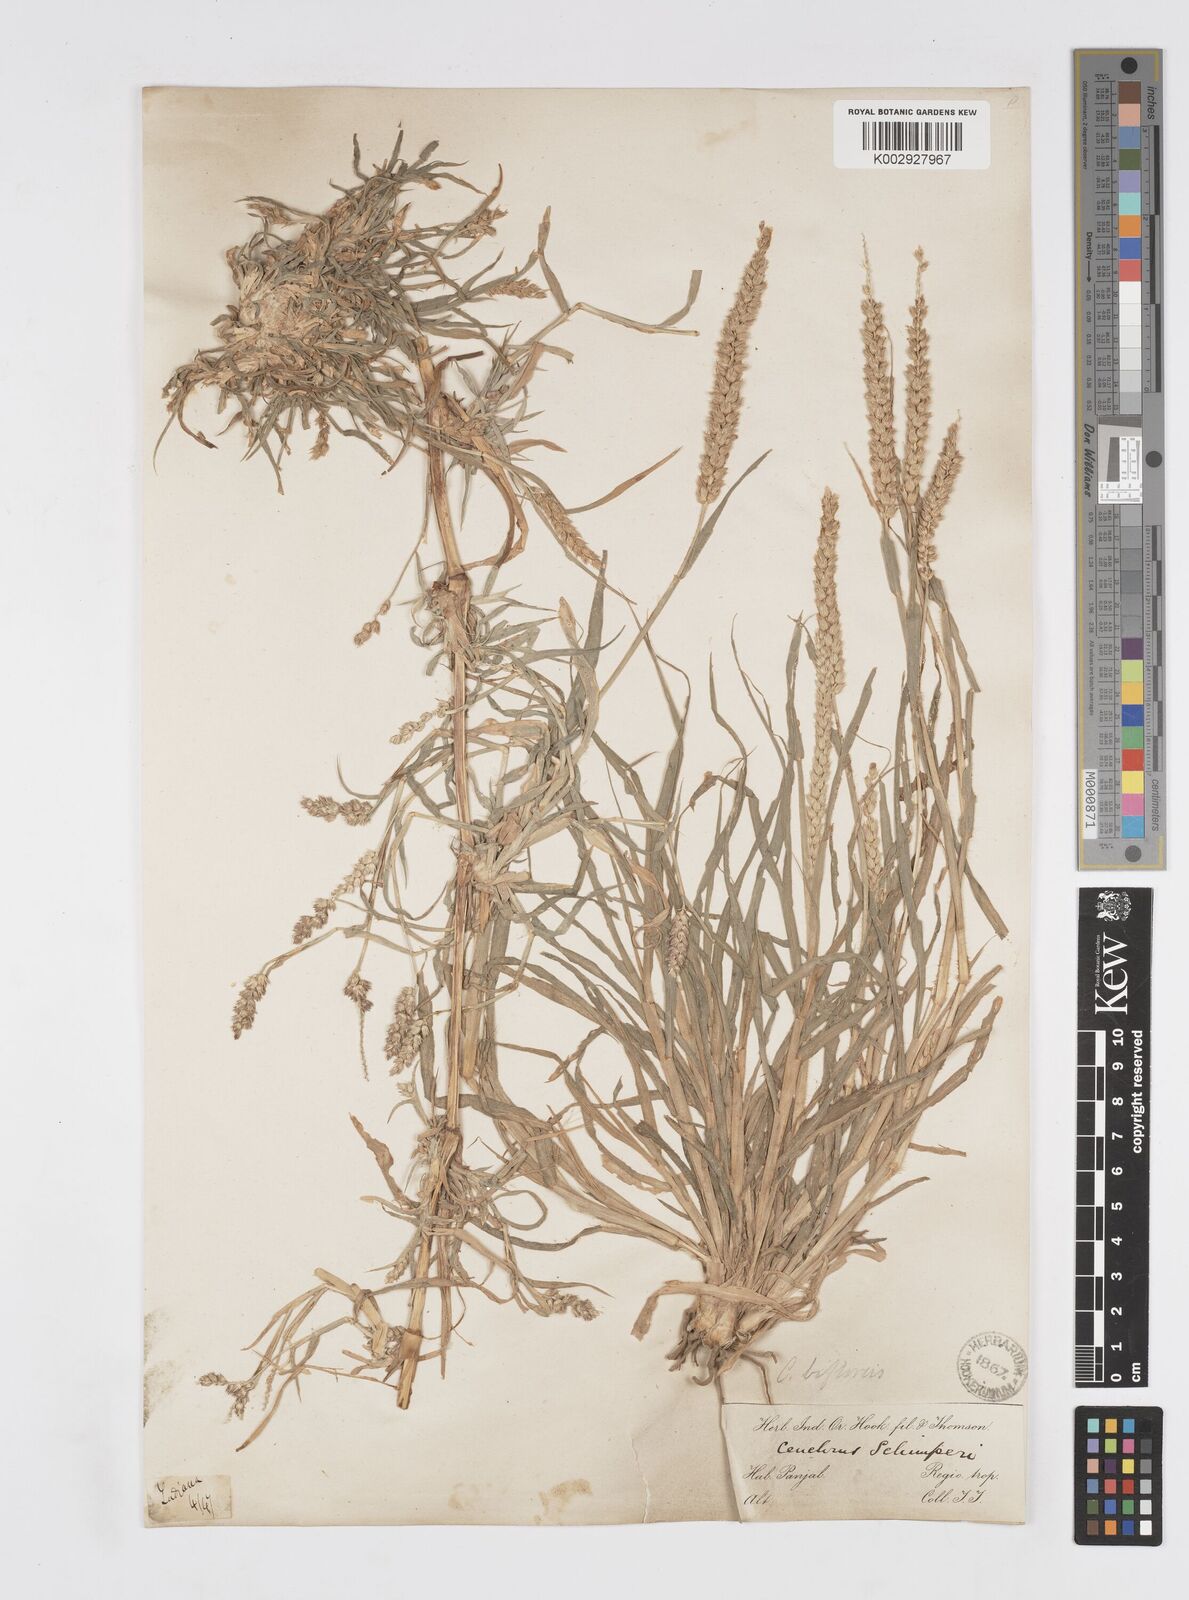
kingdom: Plantae
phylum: Tracheophyta
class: Liliopsida
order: Poales
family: Poaceae
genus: Cenchrus
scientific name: Cenchrus setigerus
